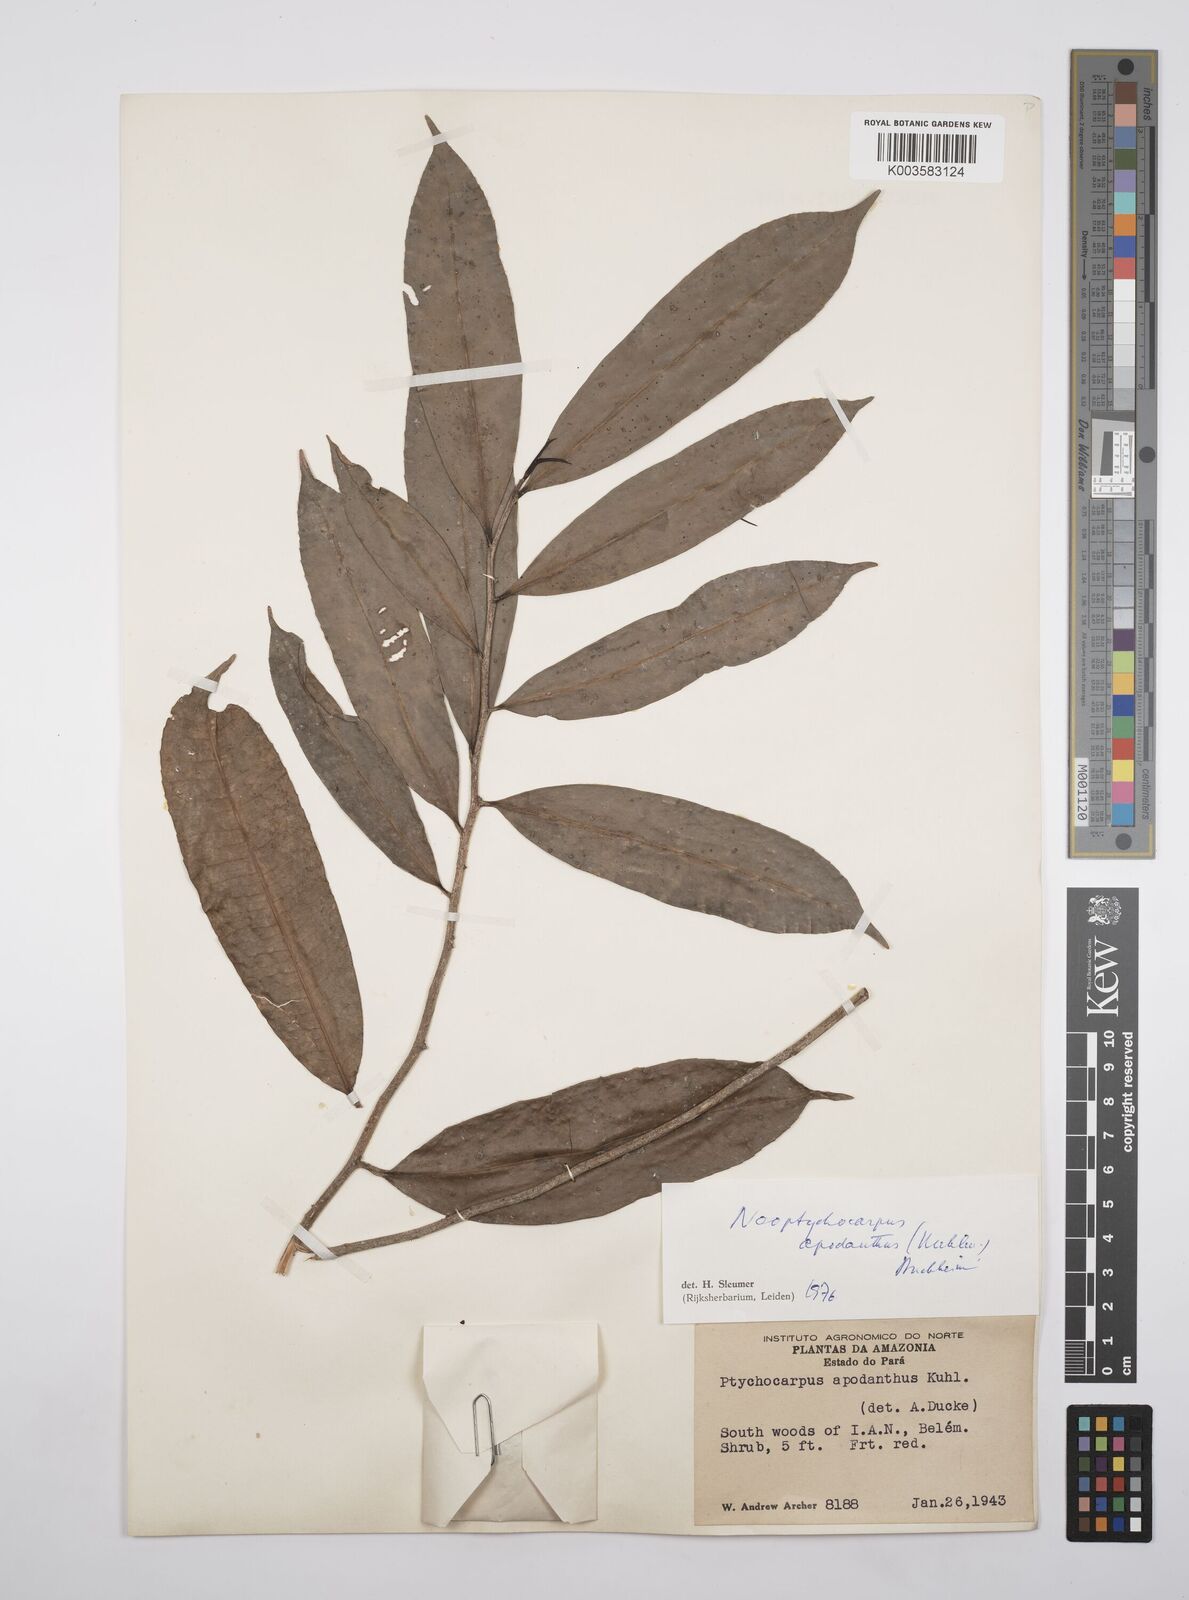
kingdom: Plantae
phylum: Tracheophyta
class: Magnoliopsida
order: Malpighiales
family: Salicaceae
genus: Casearia
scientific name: Casearia apodantha
